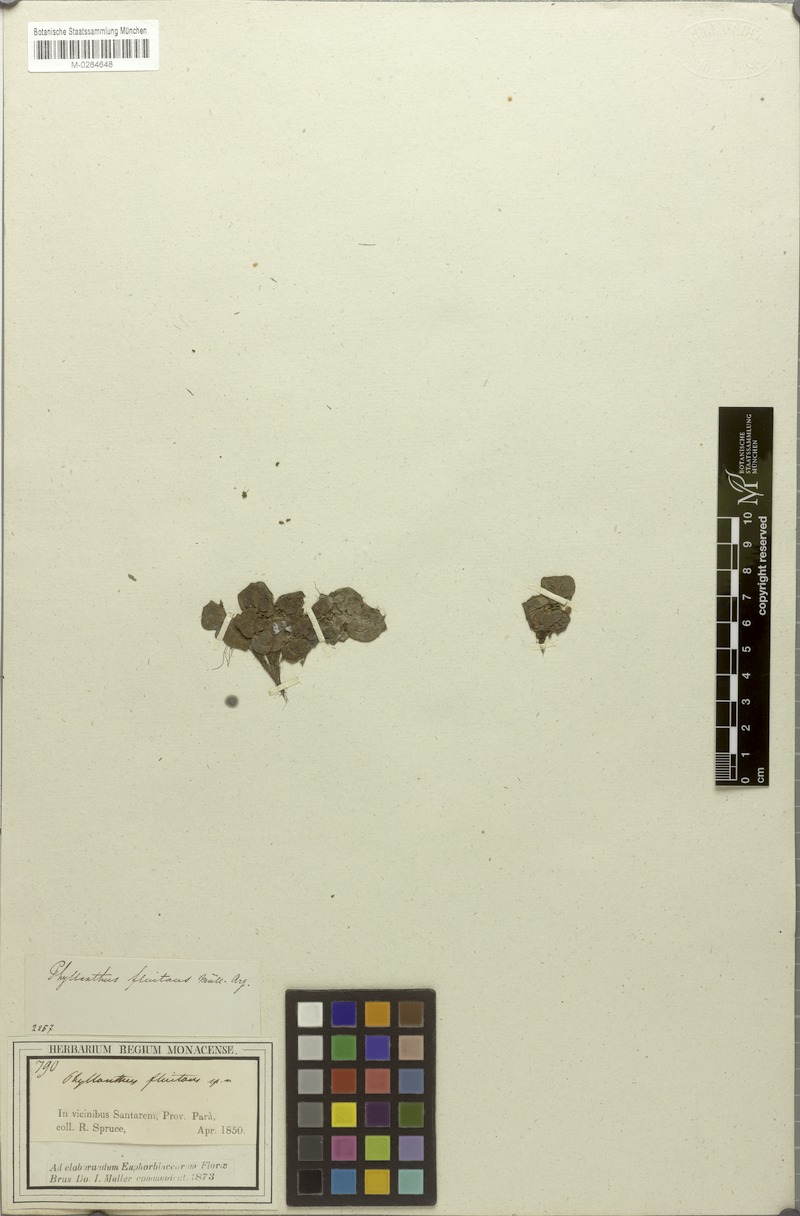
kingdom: Plantae
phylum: Tracheophyta
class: Magnoliopsida
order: Malpighiales
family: Phyllanthaceae
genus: Phyllanthus
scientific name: Phyllanthus fluitans
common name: Floating spurge
